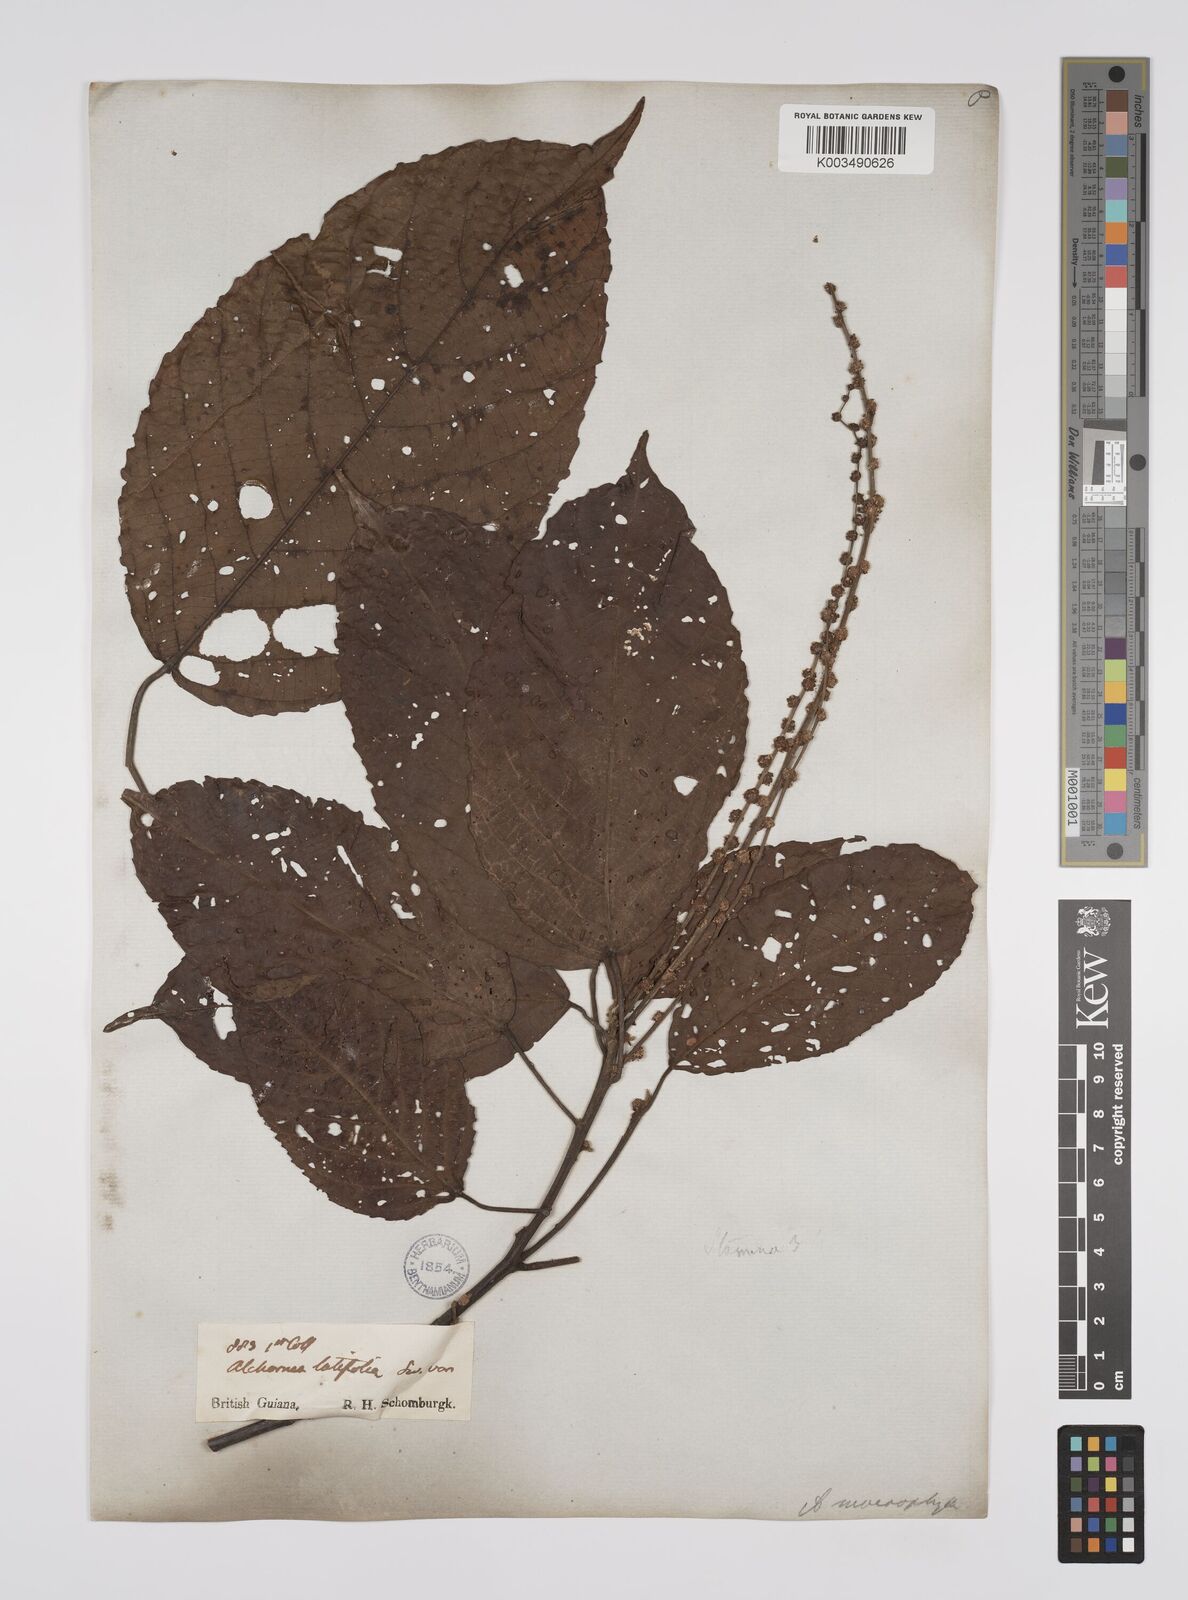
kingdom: Plantae
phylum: Tracheophyta
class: Magnoliopsida
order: Malpighiales
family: Euphorbiaceae
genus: Aparisthmium
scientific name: Aparisthmium cordatum
